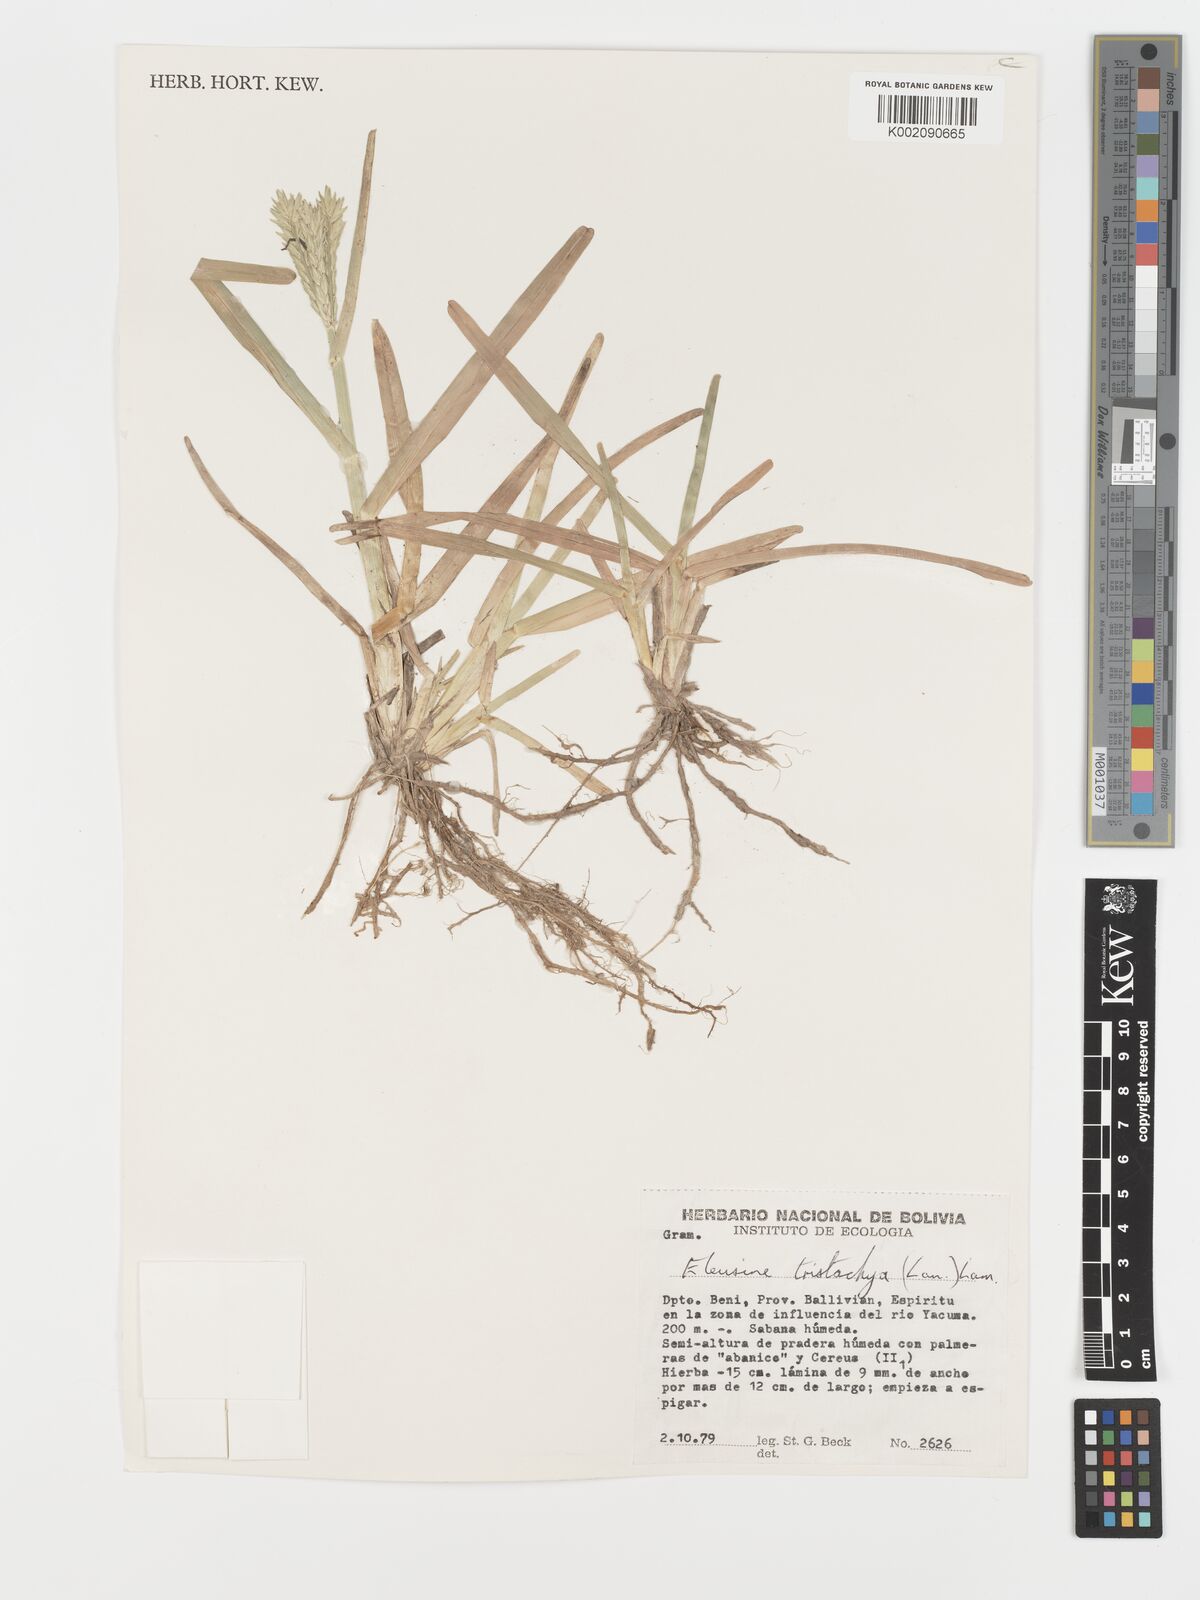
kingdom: Plantae
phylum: Tracheophyta
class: Liliopsida
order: Poales
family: Poaceae
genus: Eleusine
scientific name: Eleusine tristachya
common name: American yard-grass
